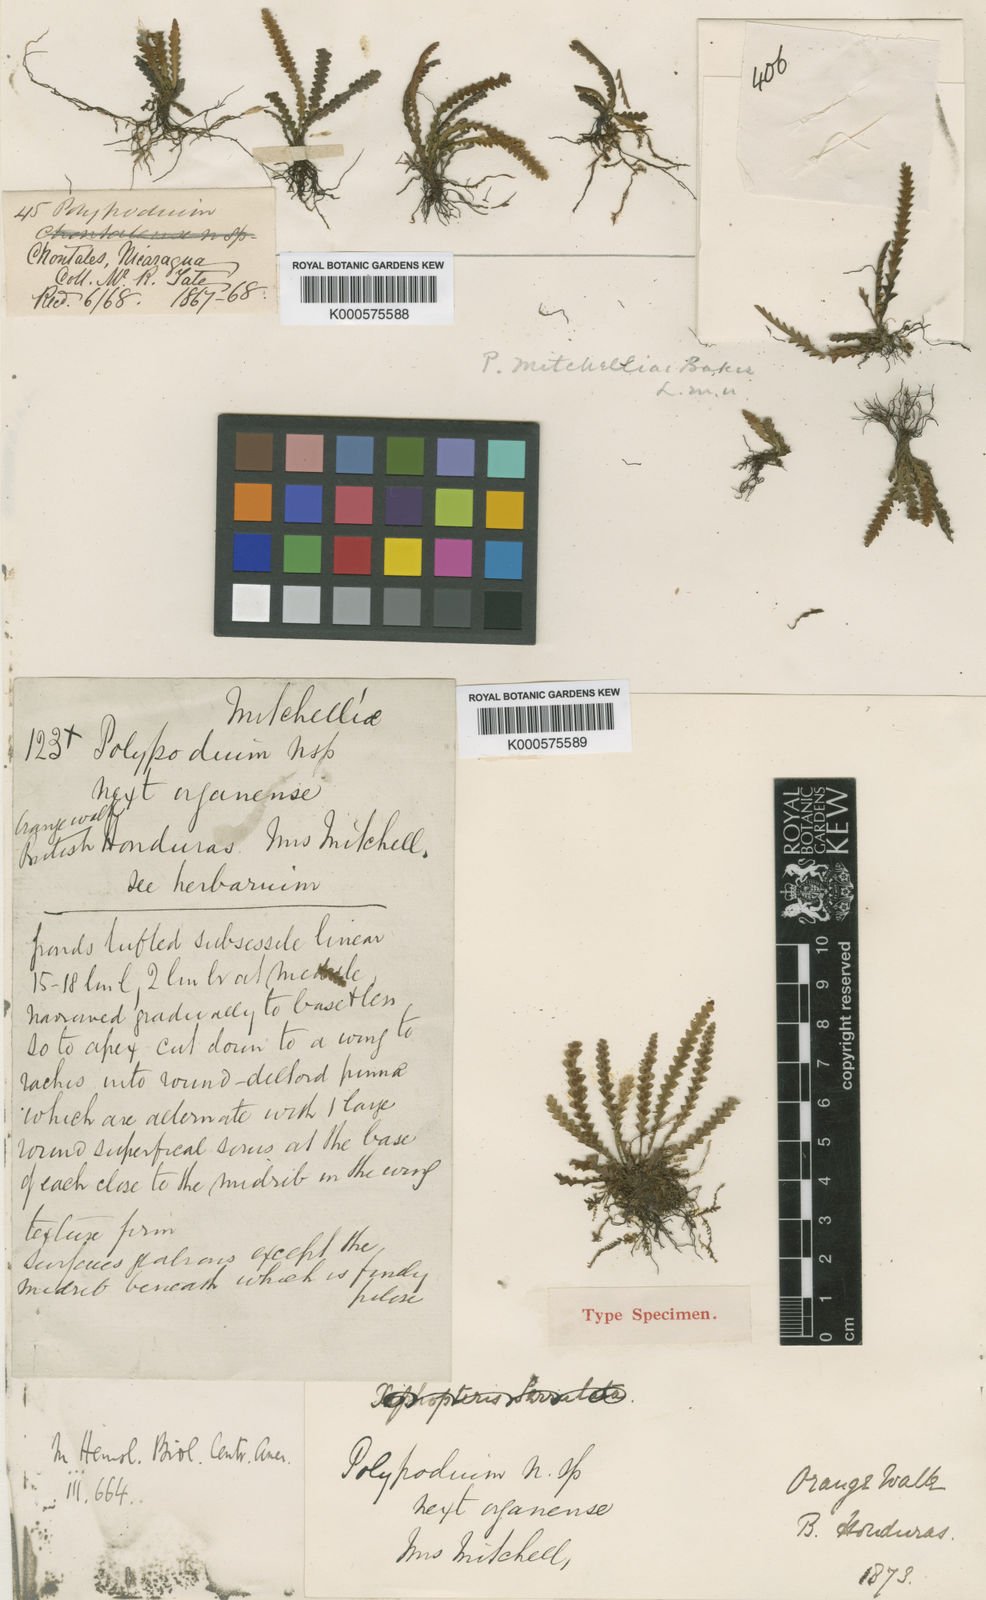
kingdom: Plantae
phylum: Tracheophyta
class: Polypodiopsida
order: Polypodiales
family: Polypodiaceae
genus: Leucotrichum
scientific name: Leucotrichum mitchelliae
